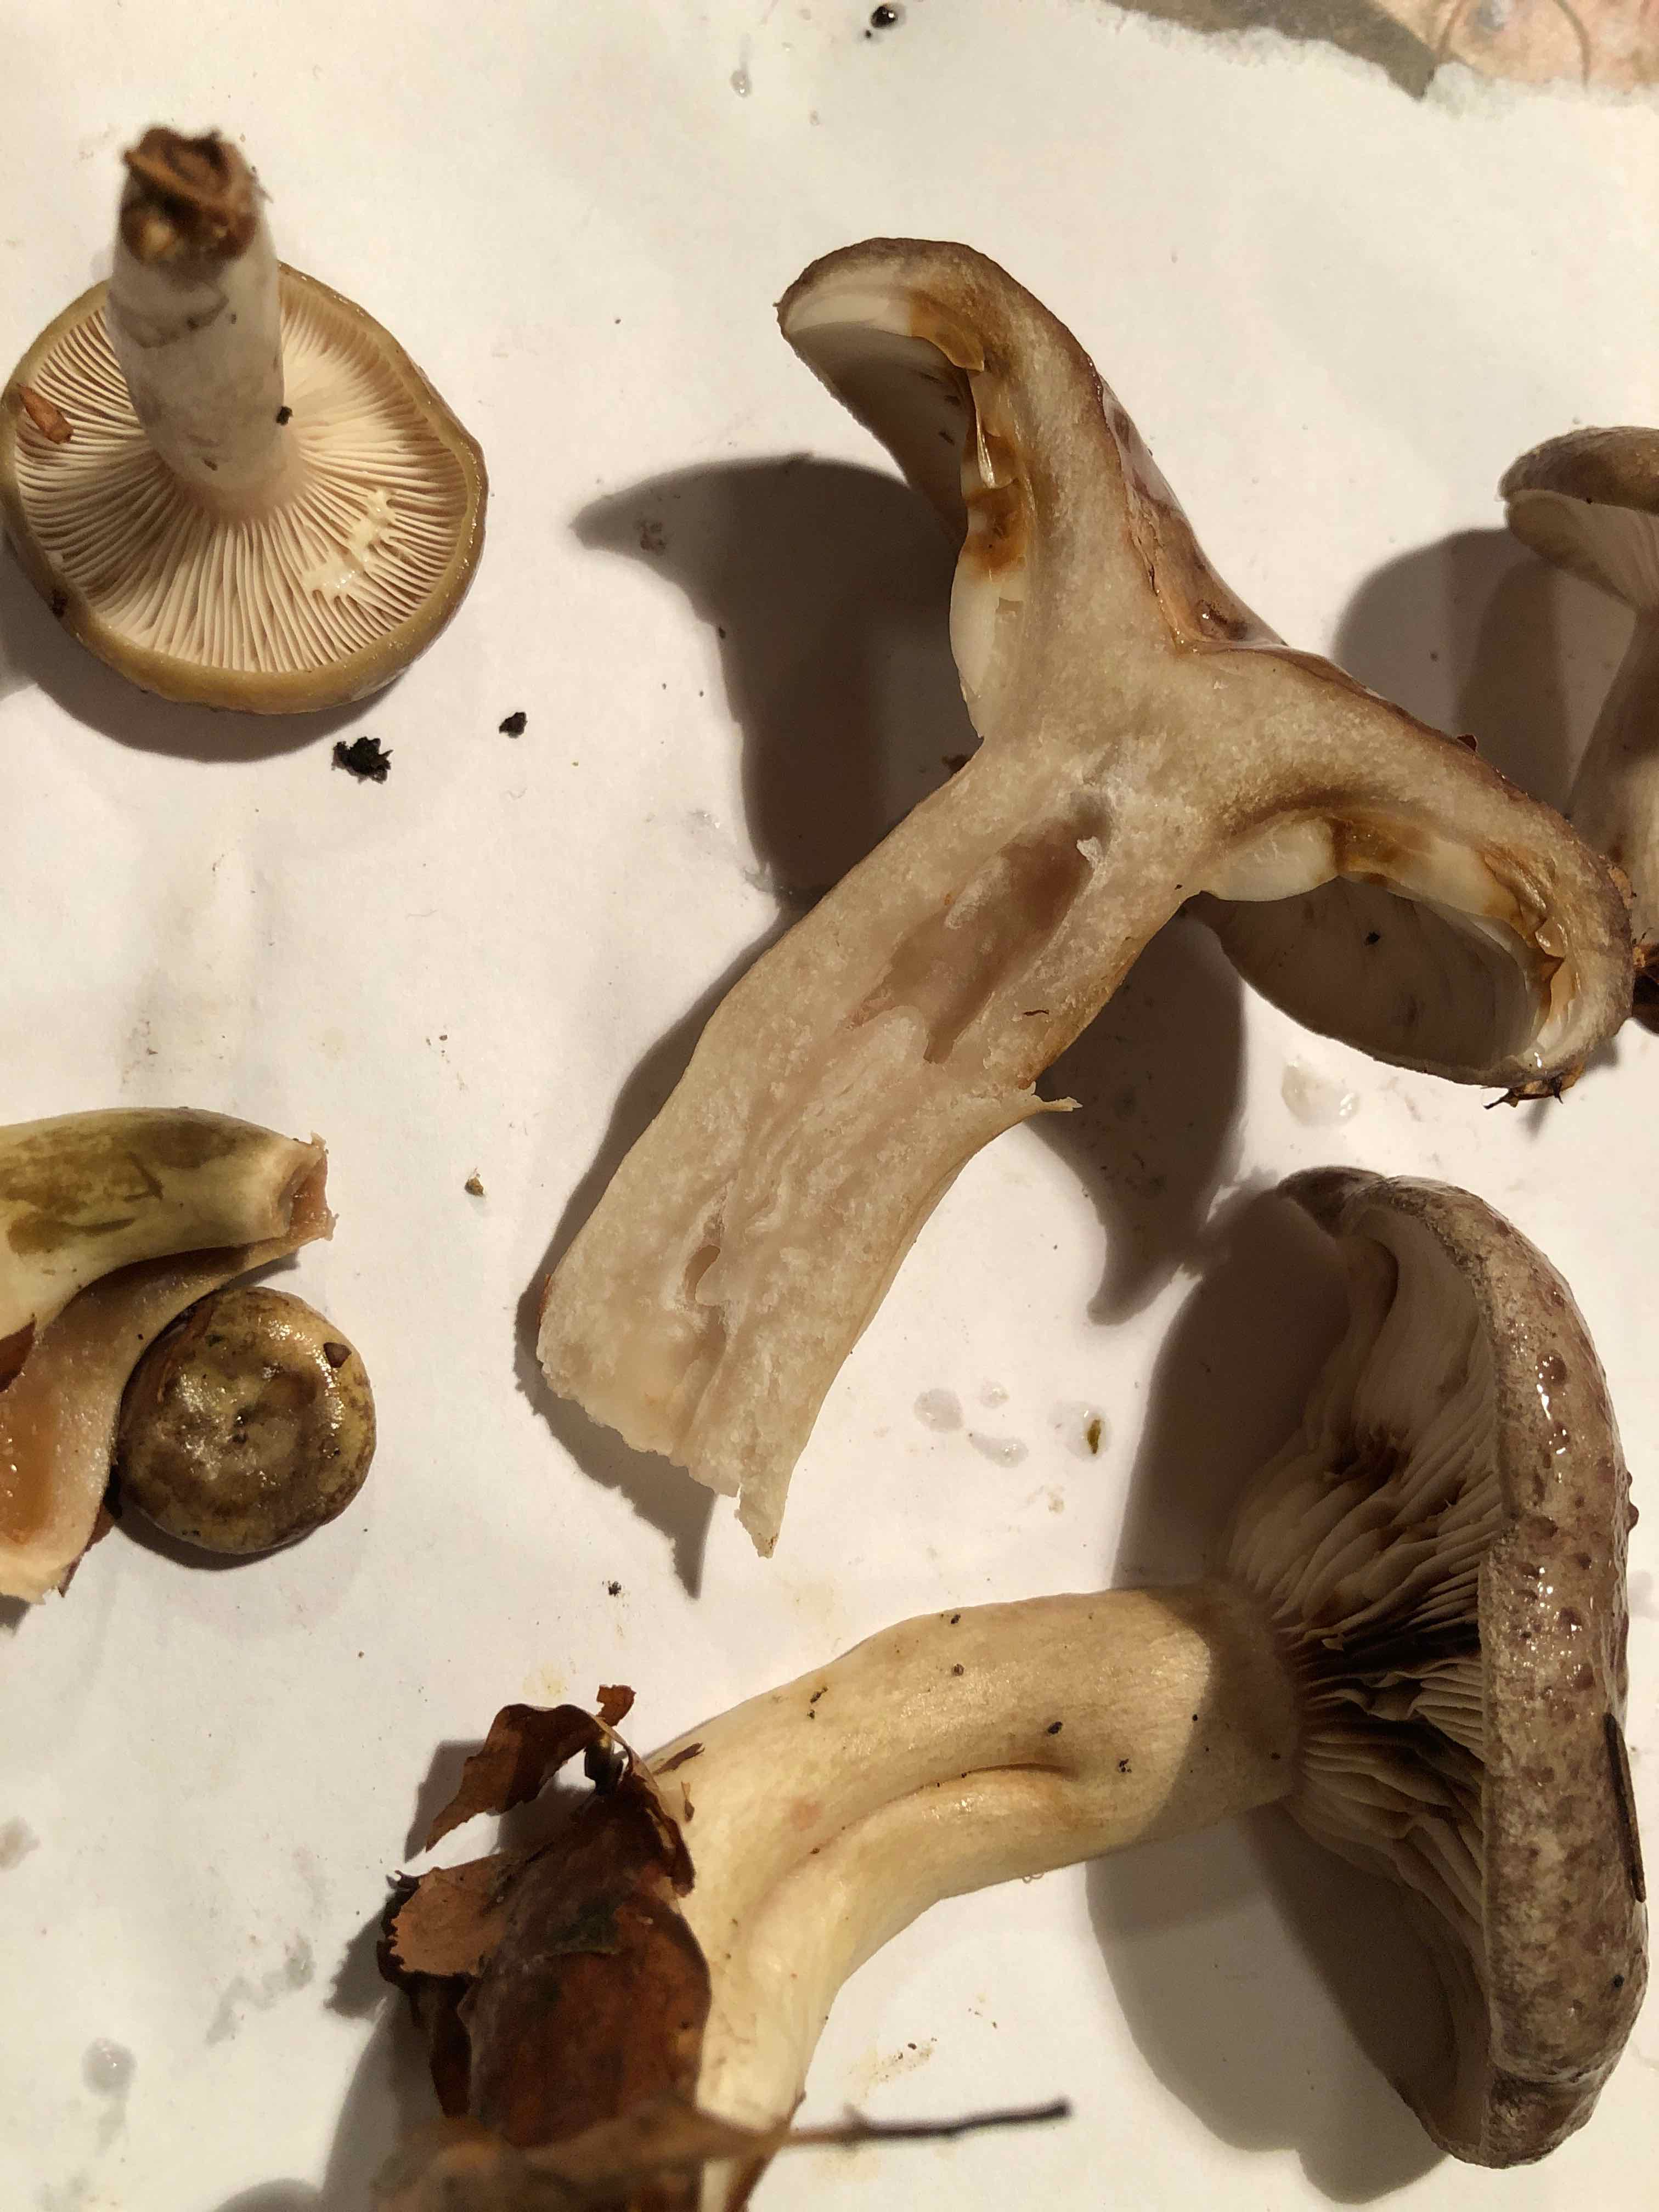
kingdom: Fungi
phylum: Basidiomycota
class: Agaricomycetes
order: Russulales
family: Russulaceae
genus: Lactarius
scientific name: Lactarius blennius
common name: dråbeplettet mælkehat
